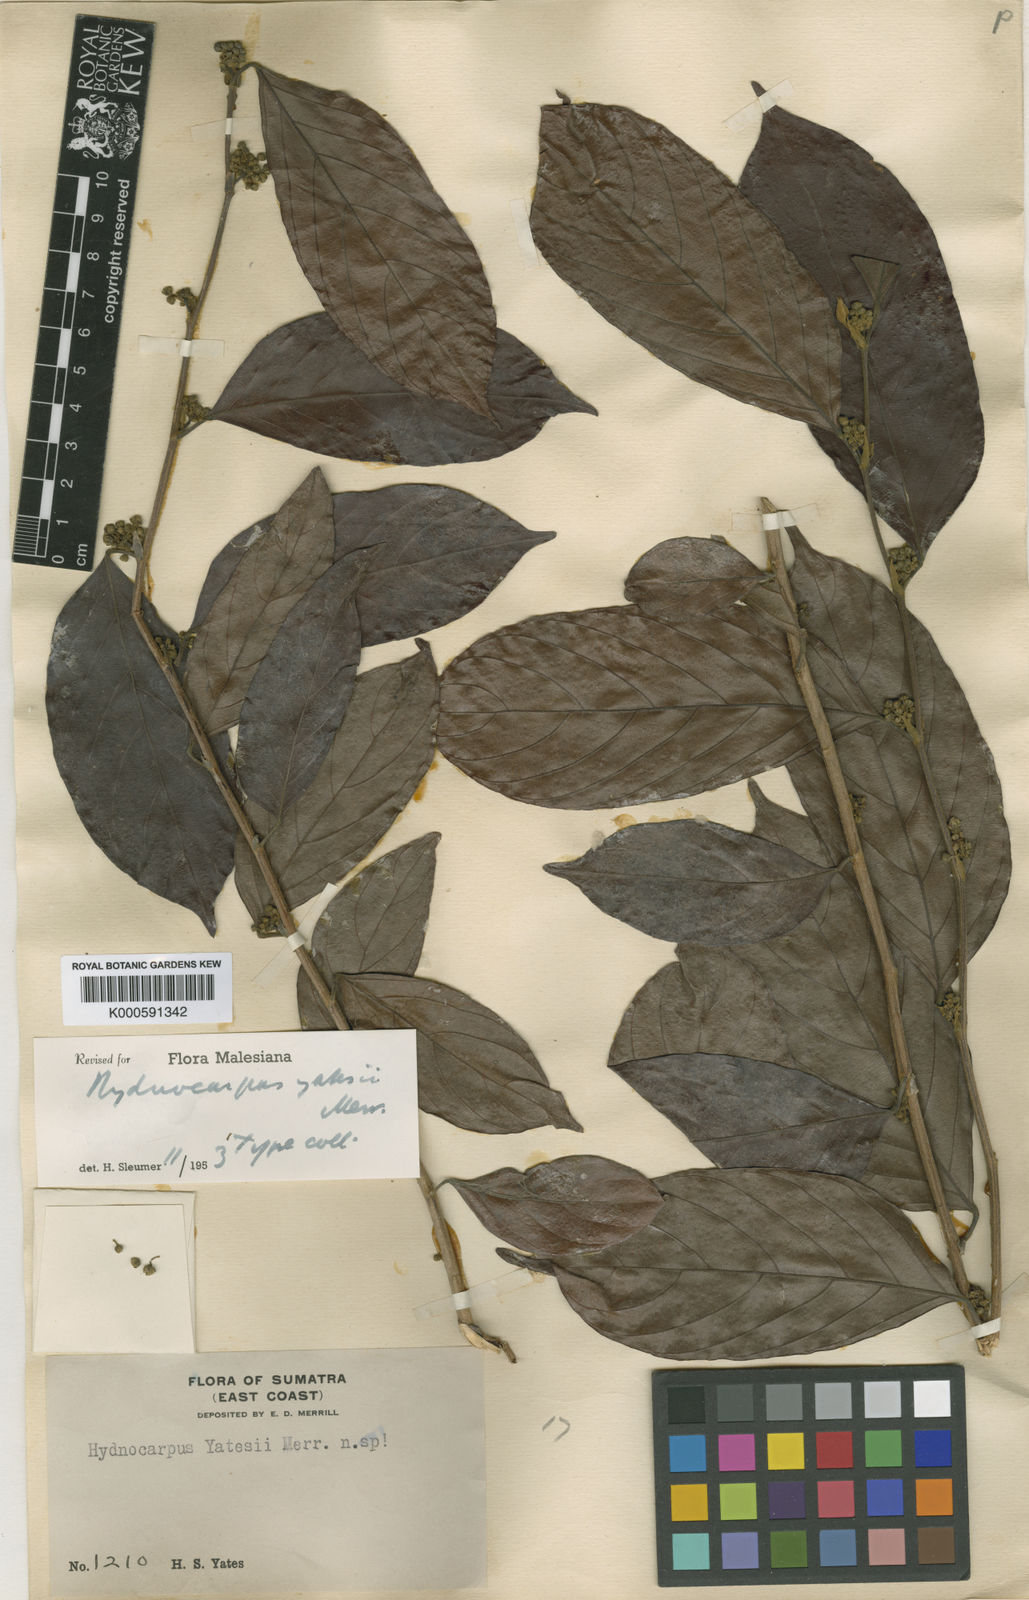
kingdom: Plantae
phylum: Tracheophyta
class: Magnoliopsida
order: Malpighiales
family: Achariaceae
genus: Hydnocarpus
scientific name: Hydnocarpus yatesii
